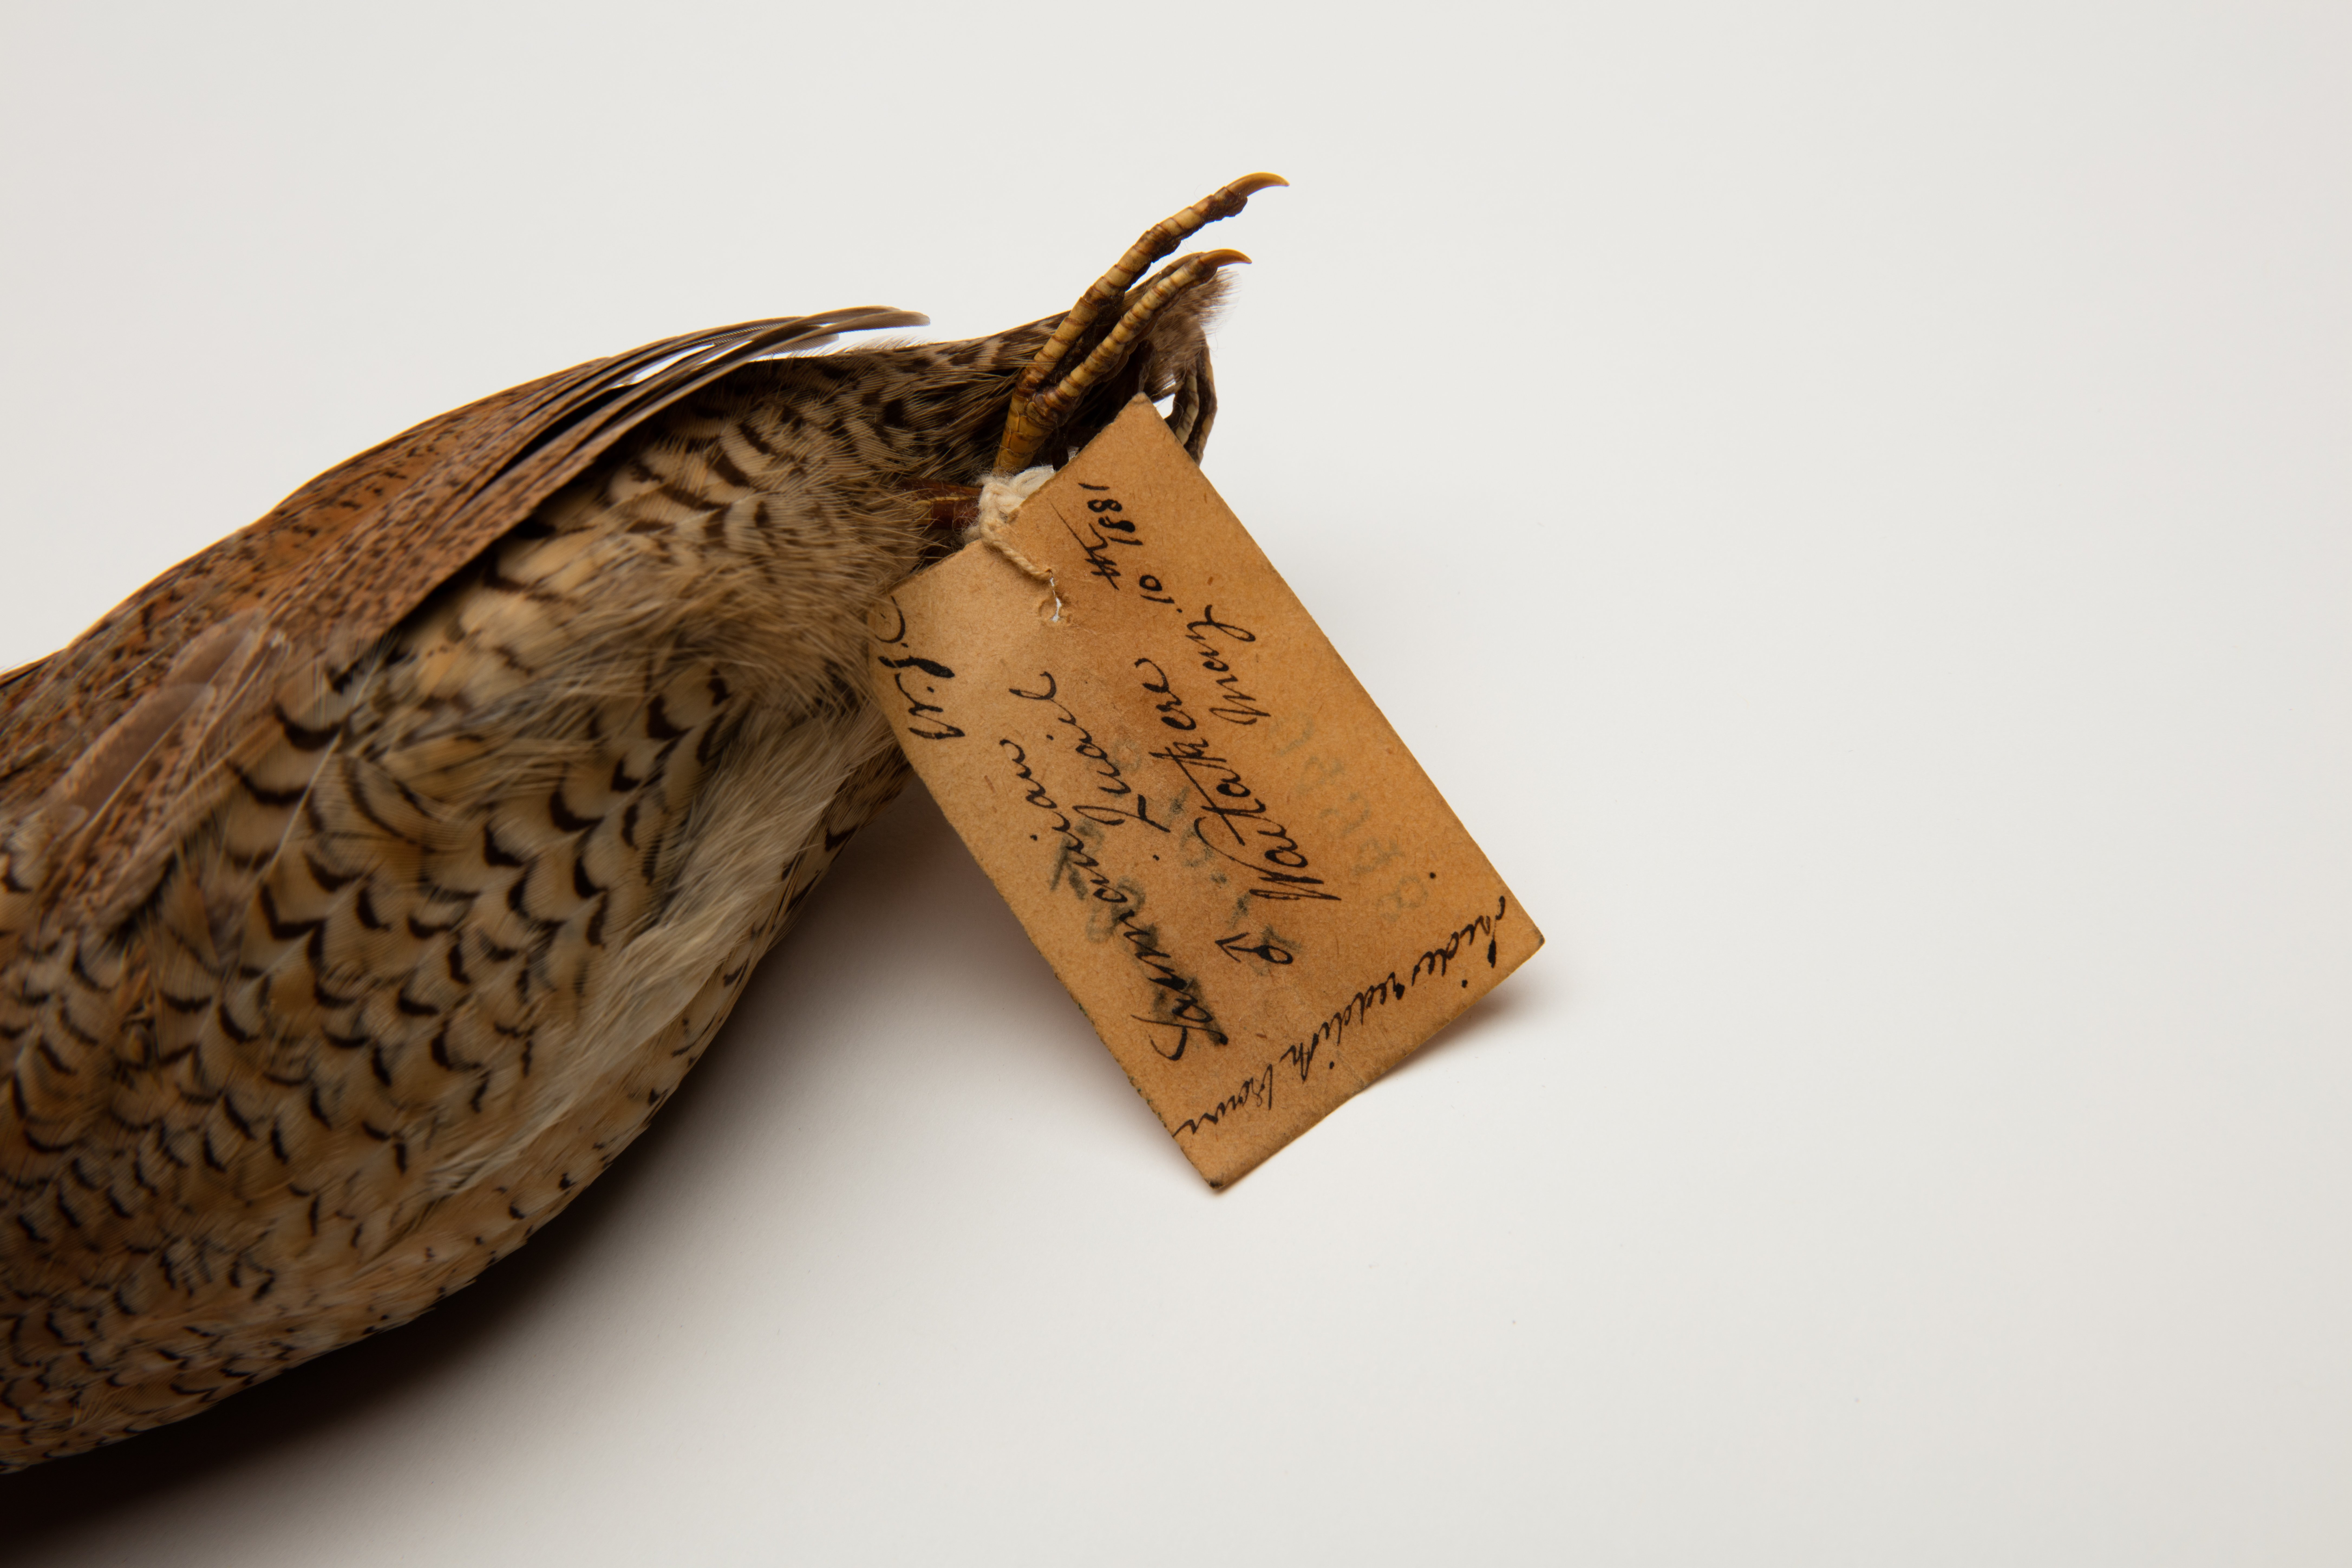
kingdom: Animalia
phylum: Chordata
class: Aves
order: Galliformes
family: Phasianidae
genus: Synoicus
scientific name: Synoicus ypsilophorus
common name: Brown quail
